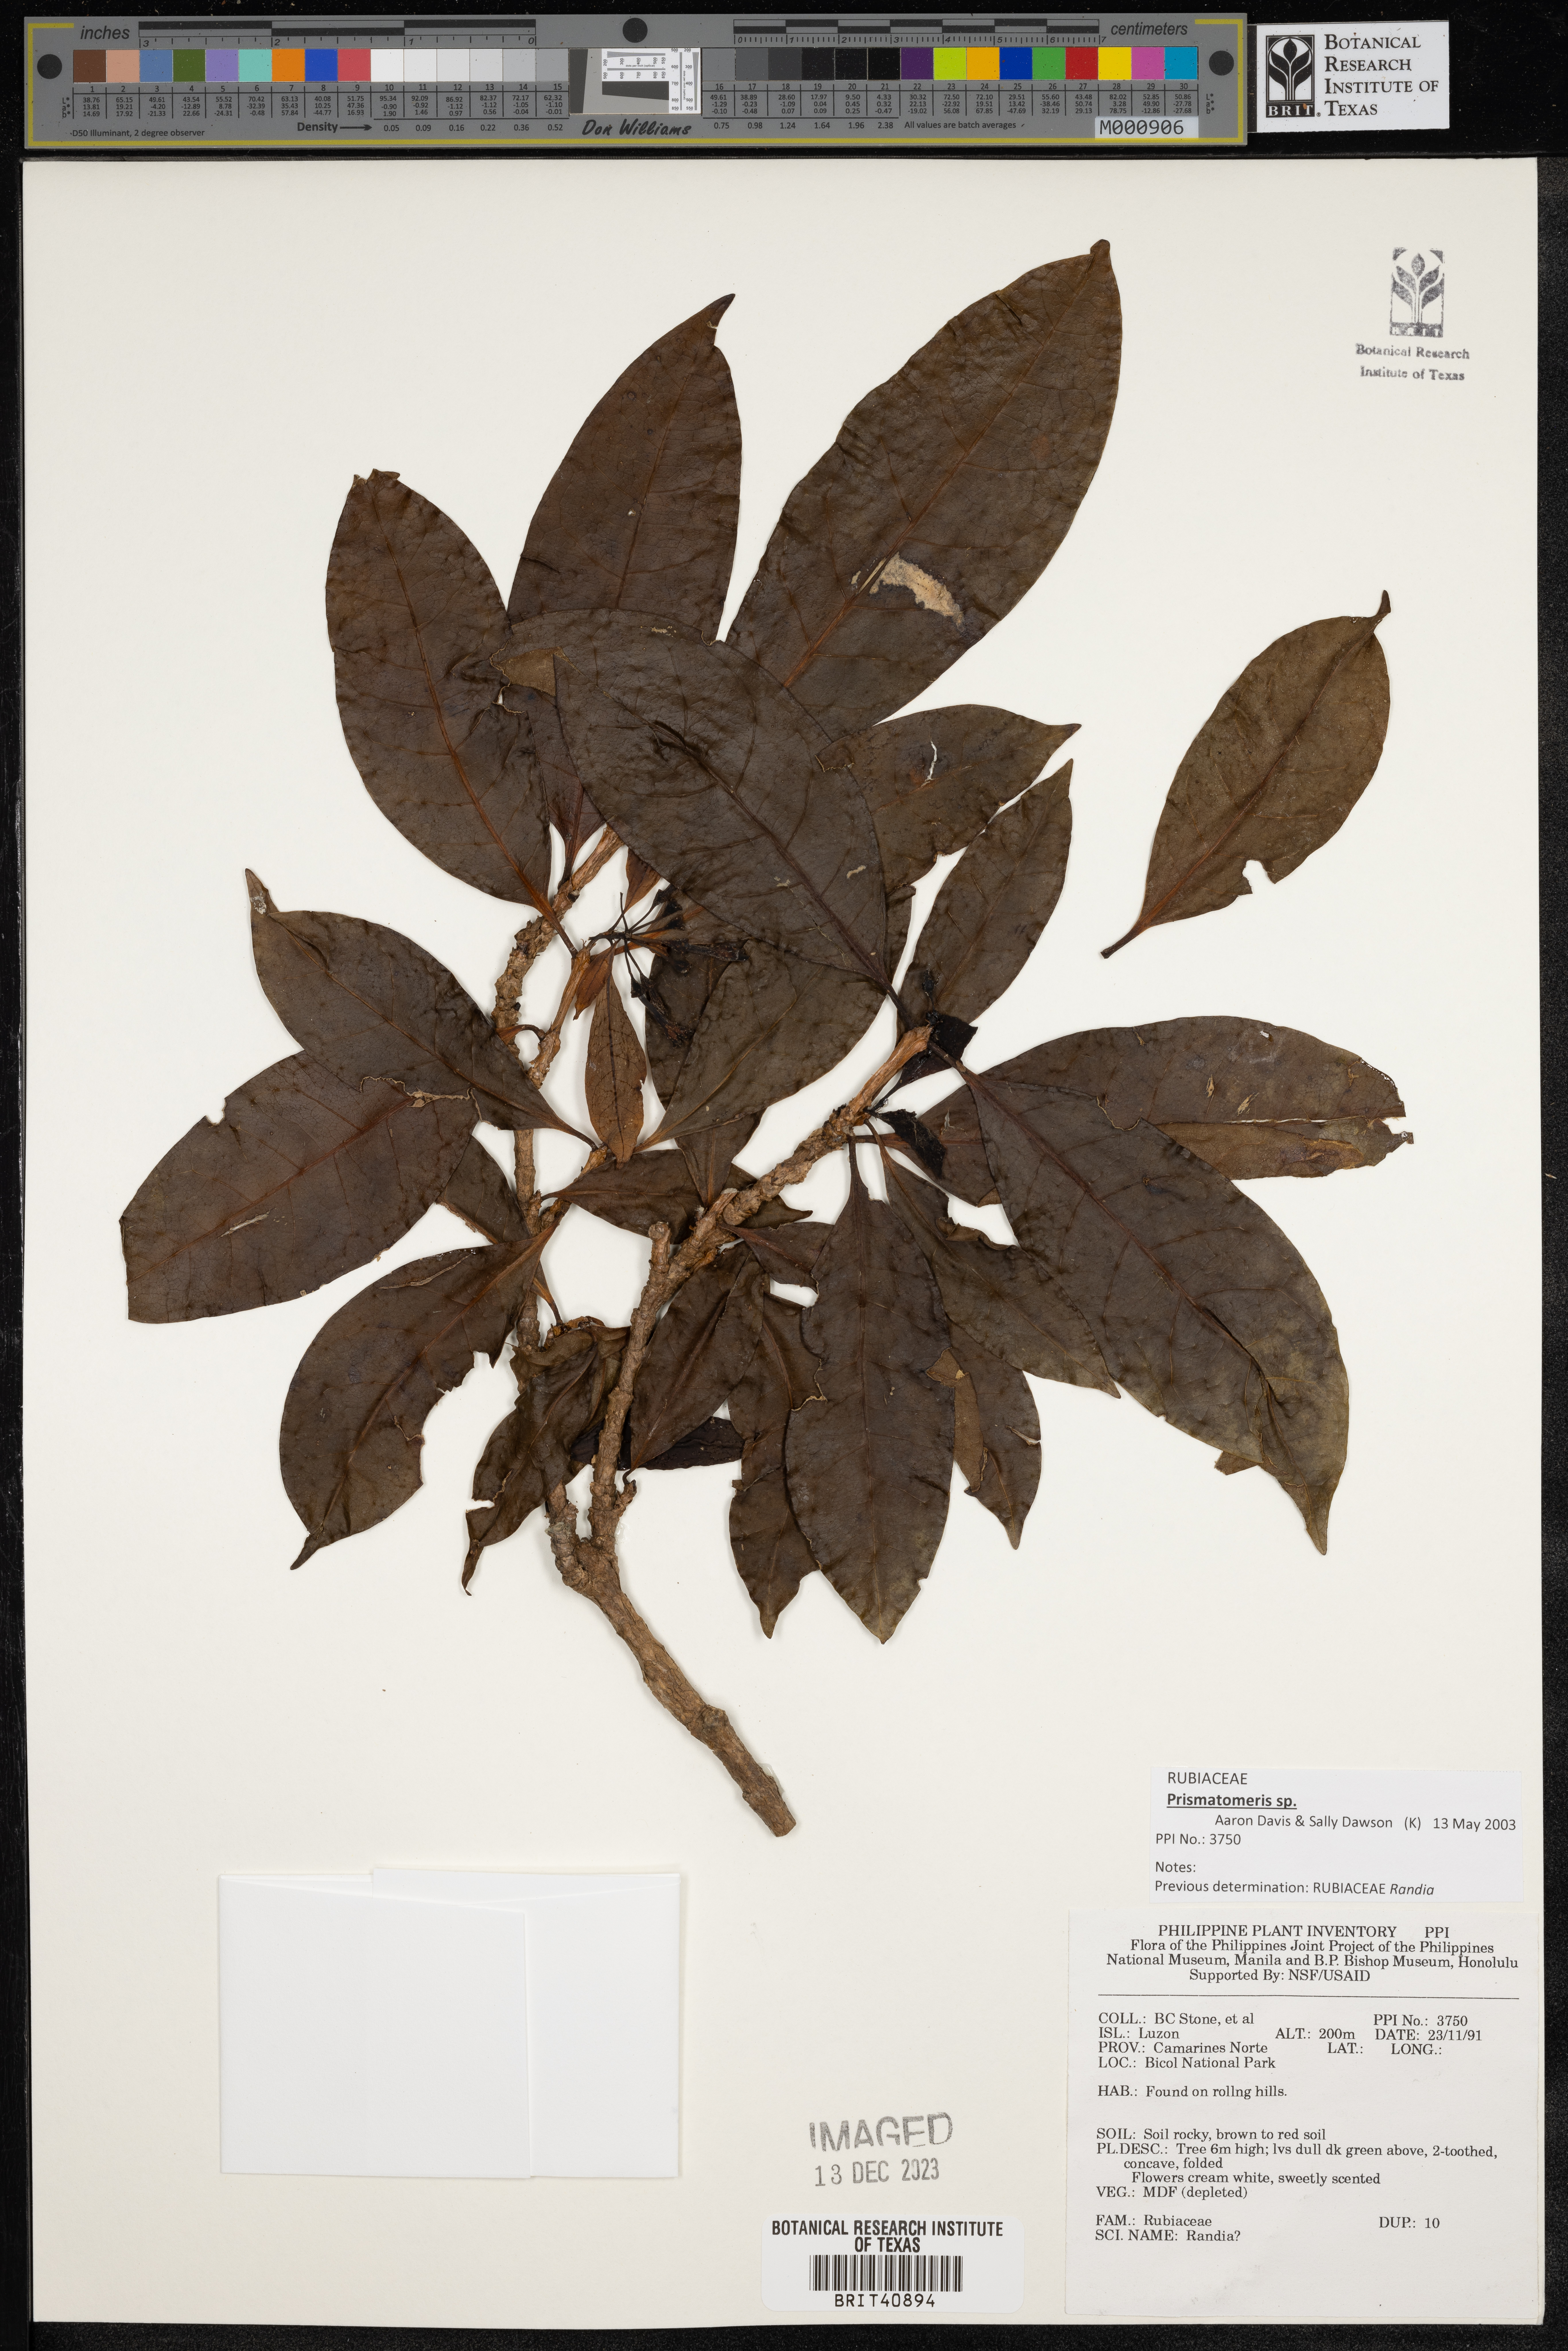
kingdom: Plantae
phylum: Tracheophyta
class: Magnoliopsida
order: Gentianales
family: Rubiaceae
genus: Randia
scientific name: Randia
